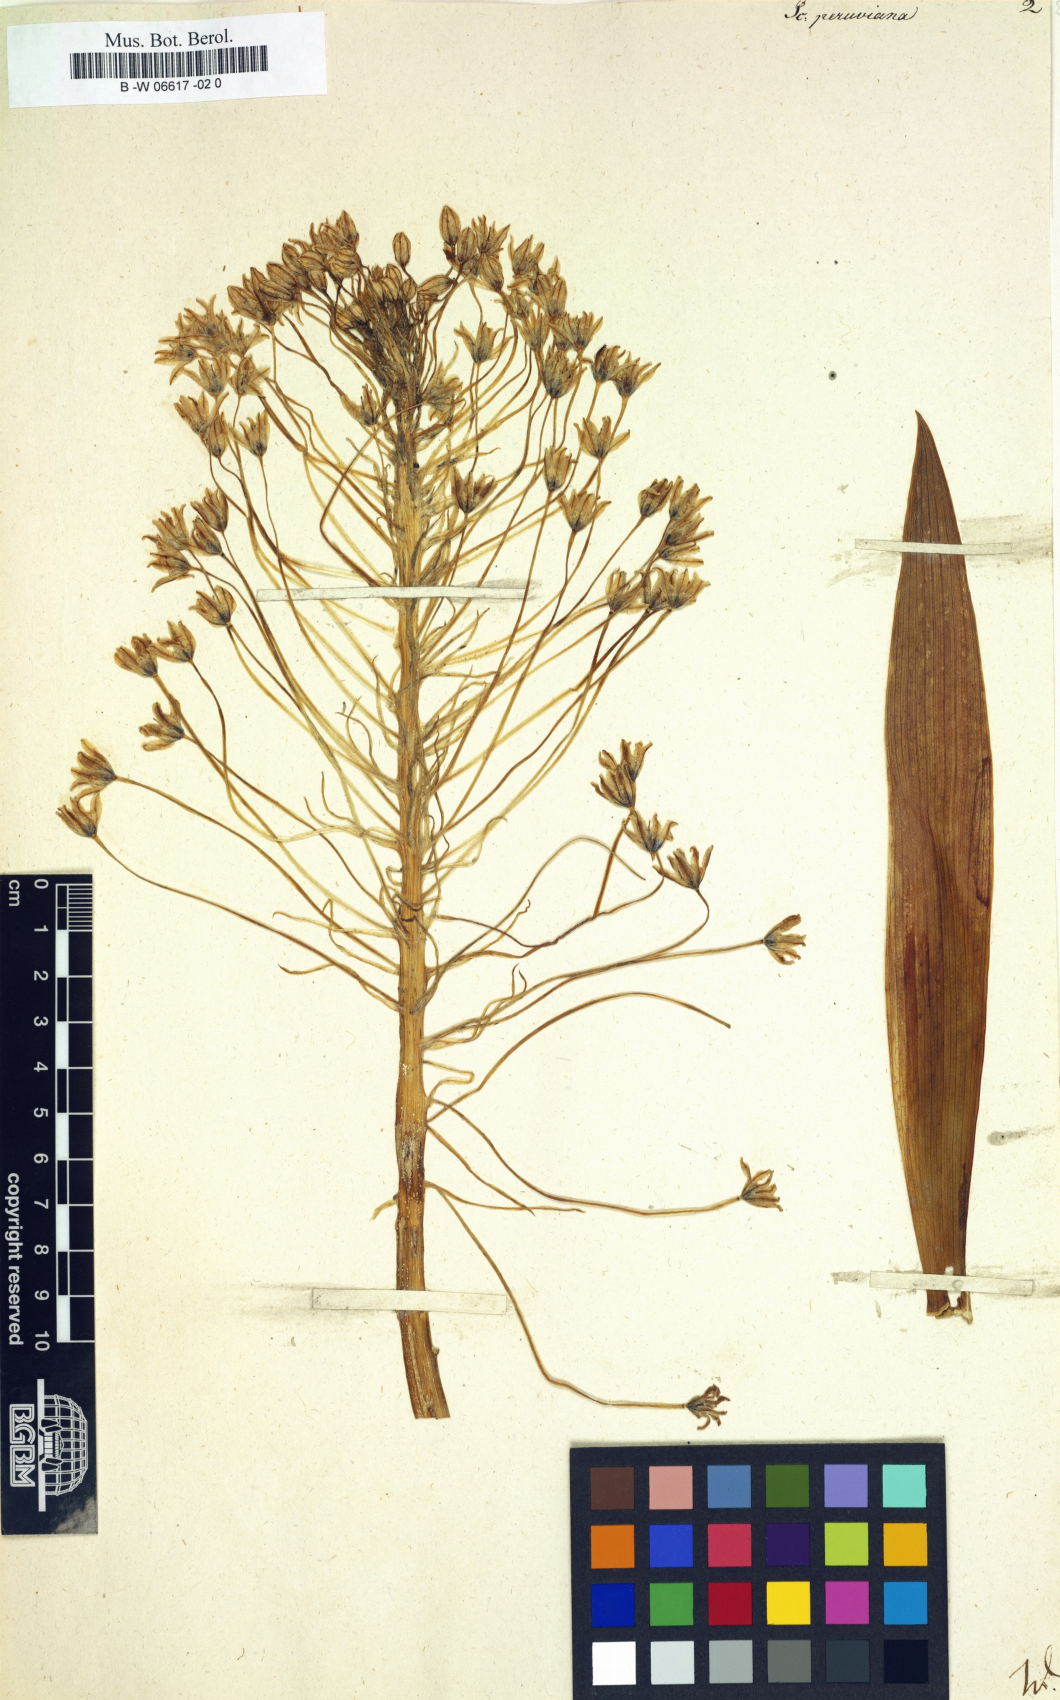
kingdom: Plantae
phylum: Tracheophyta
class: Liliopsida
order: Asparagales
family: Asparagaceae
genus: Scilla
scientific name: Scilla peruviana
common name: Portuguese squill
